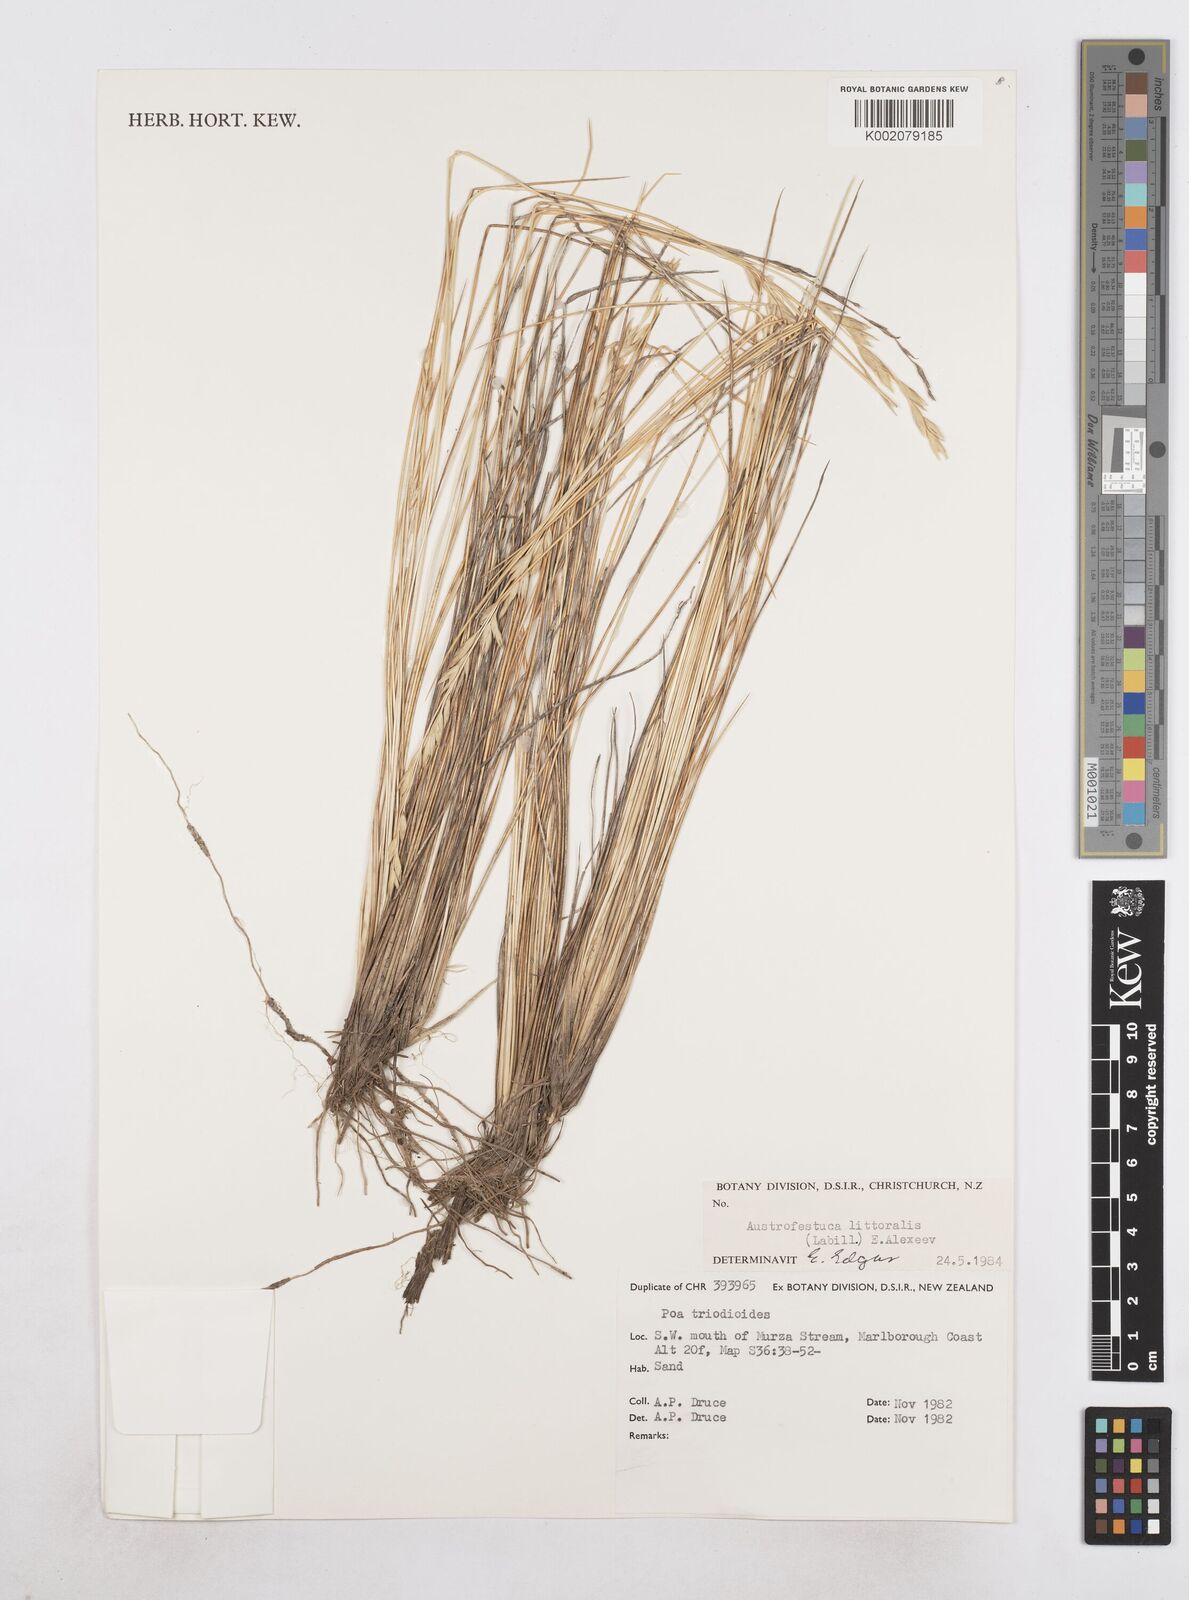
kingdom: Plantae
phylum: Tracheophyta
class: Liliopsida
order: Poales
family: Poaceae
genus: Poa
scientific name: Poa triodioides
